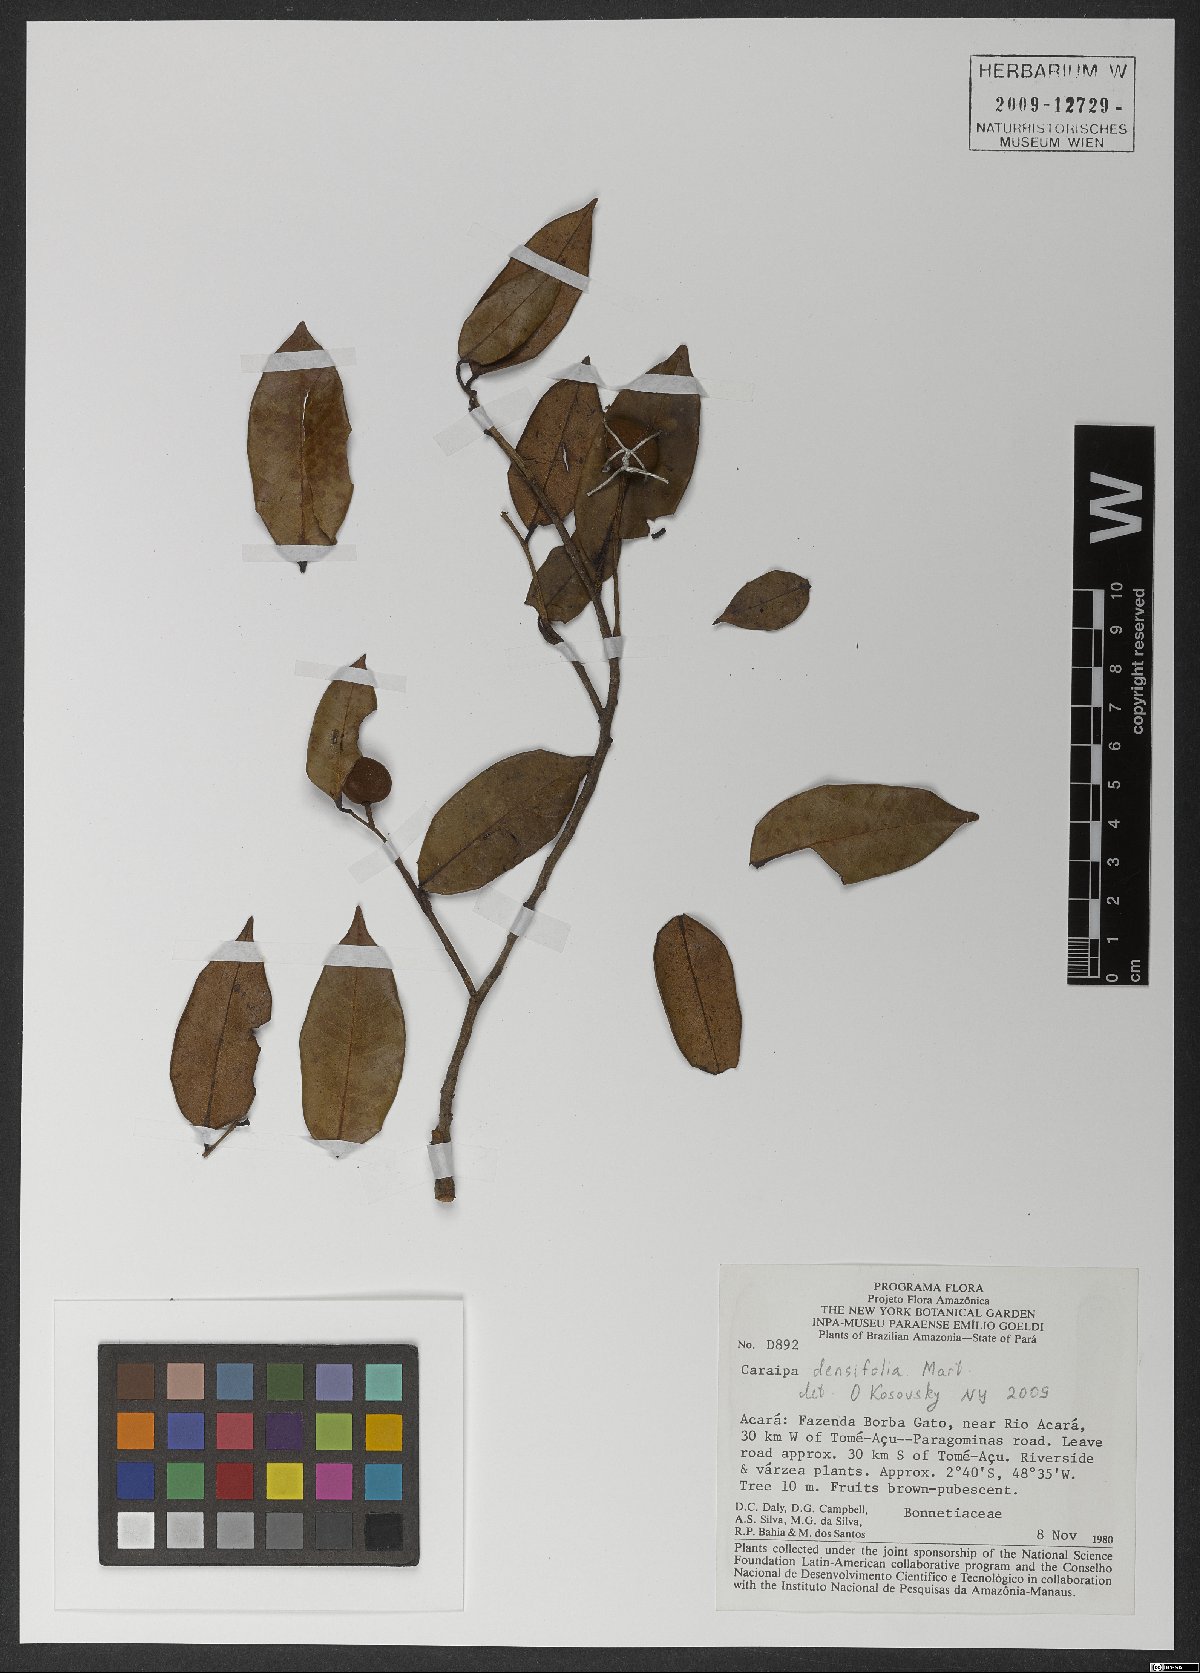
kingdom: Plantae
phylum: Tracheophyta
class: Magnoliopsida
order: Malpighiales
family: Calophyllaceae
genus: Caraipa
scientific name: Caraipa densifolia
